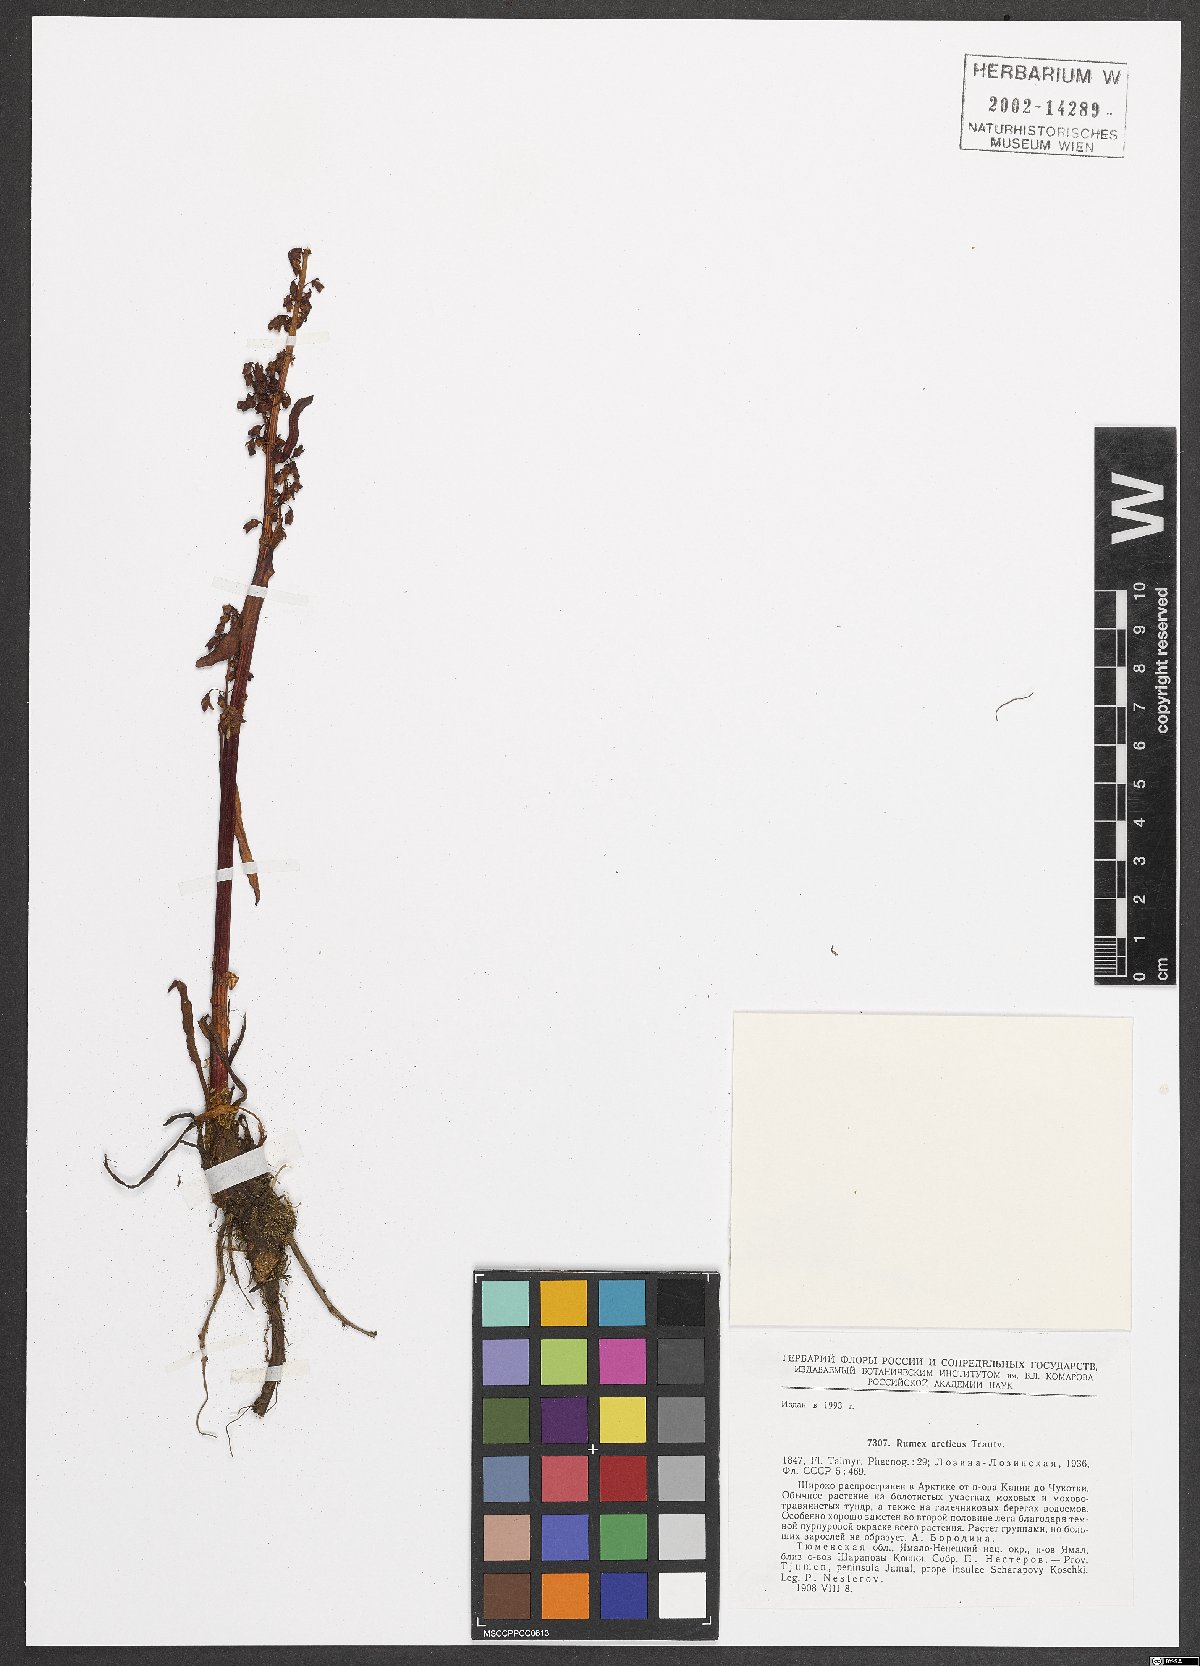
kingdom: Plantae
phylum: Tracheophyta
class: Magnoliopsida
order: Caryophyllales
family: Polygonaceae
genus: Rumex
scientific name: Rumex arcticus
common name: Arctic dock
